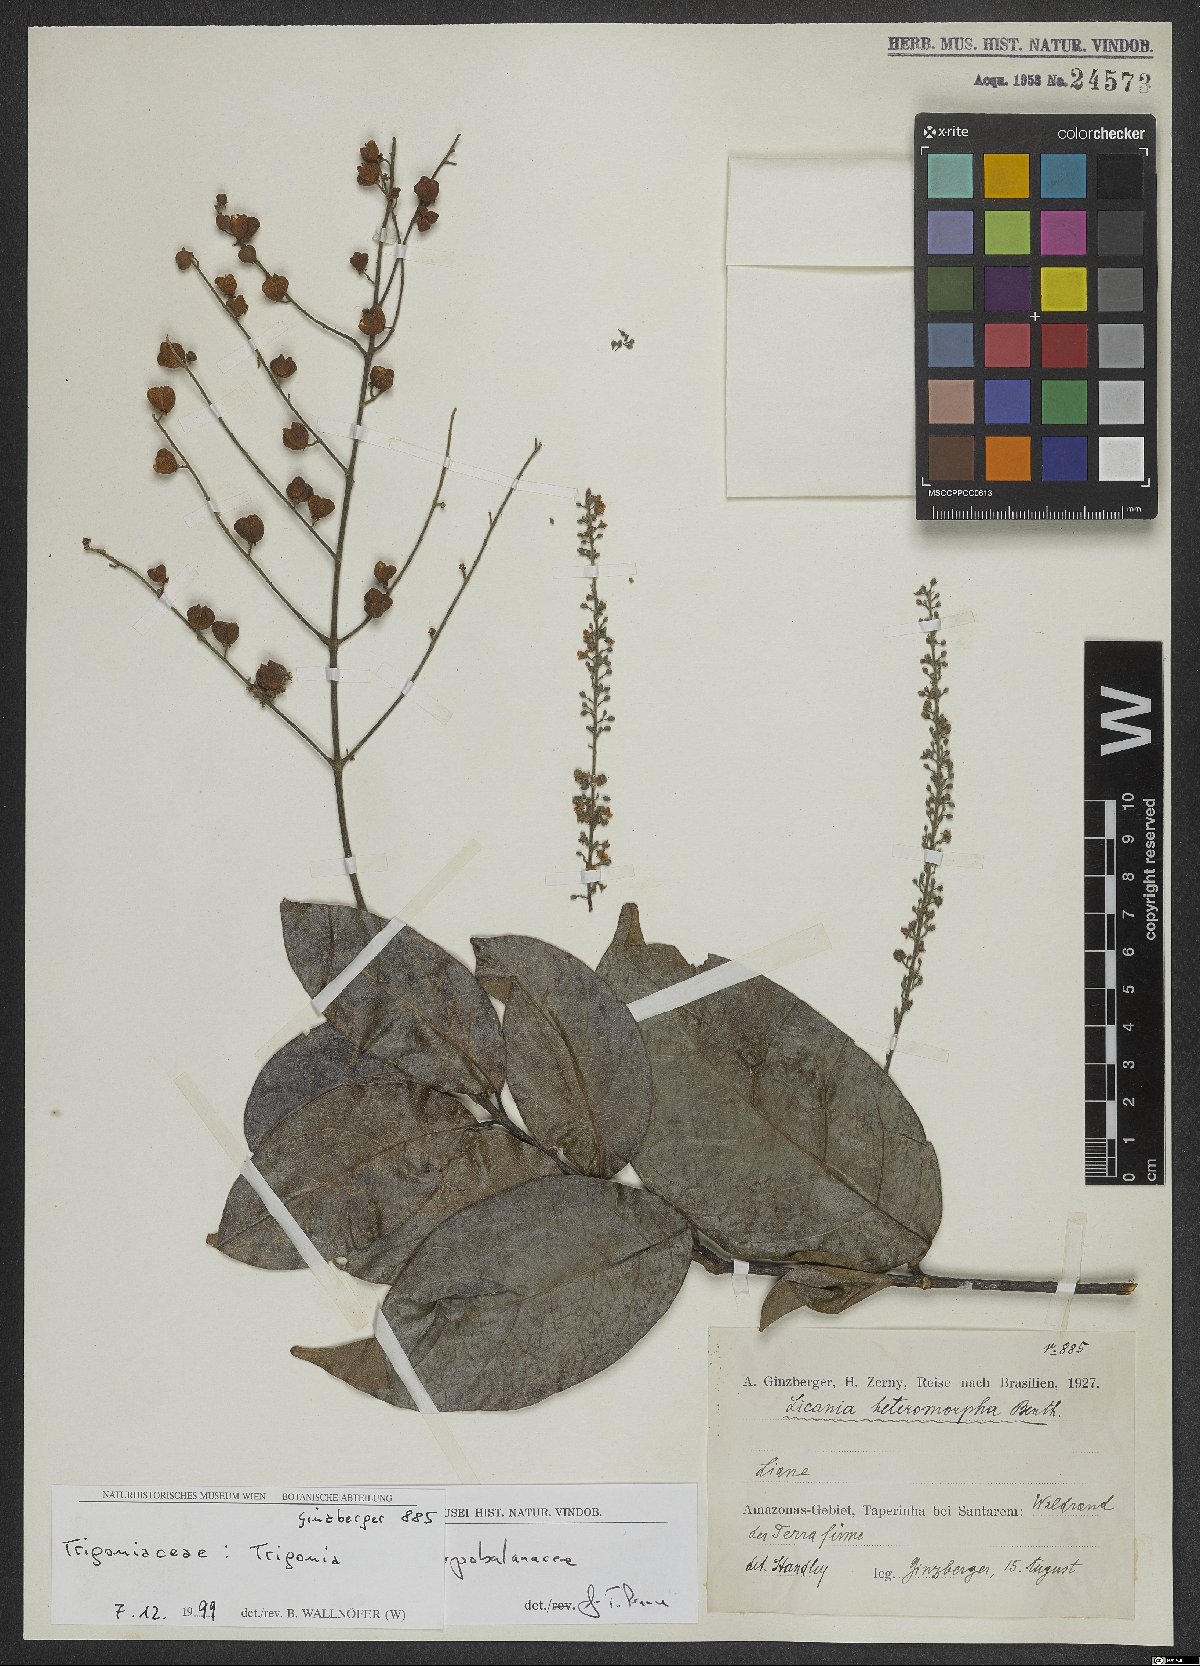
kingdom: Plantae
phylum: Tracheophyta
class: Magnoliopsida
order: Malpighiales
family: Trigoniaceae
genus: Trigonia
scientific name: Trigonia
